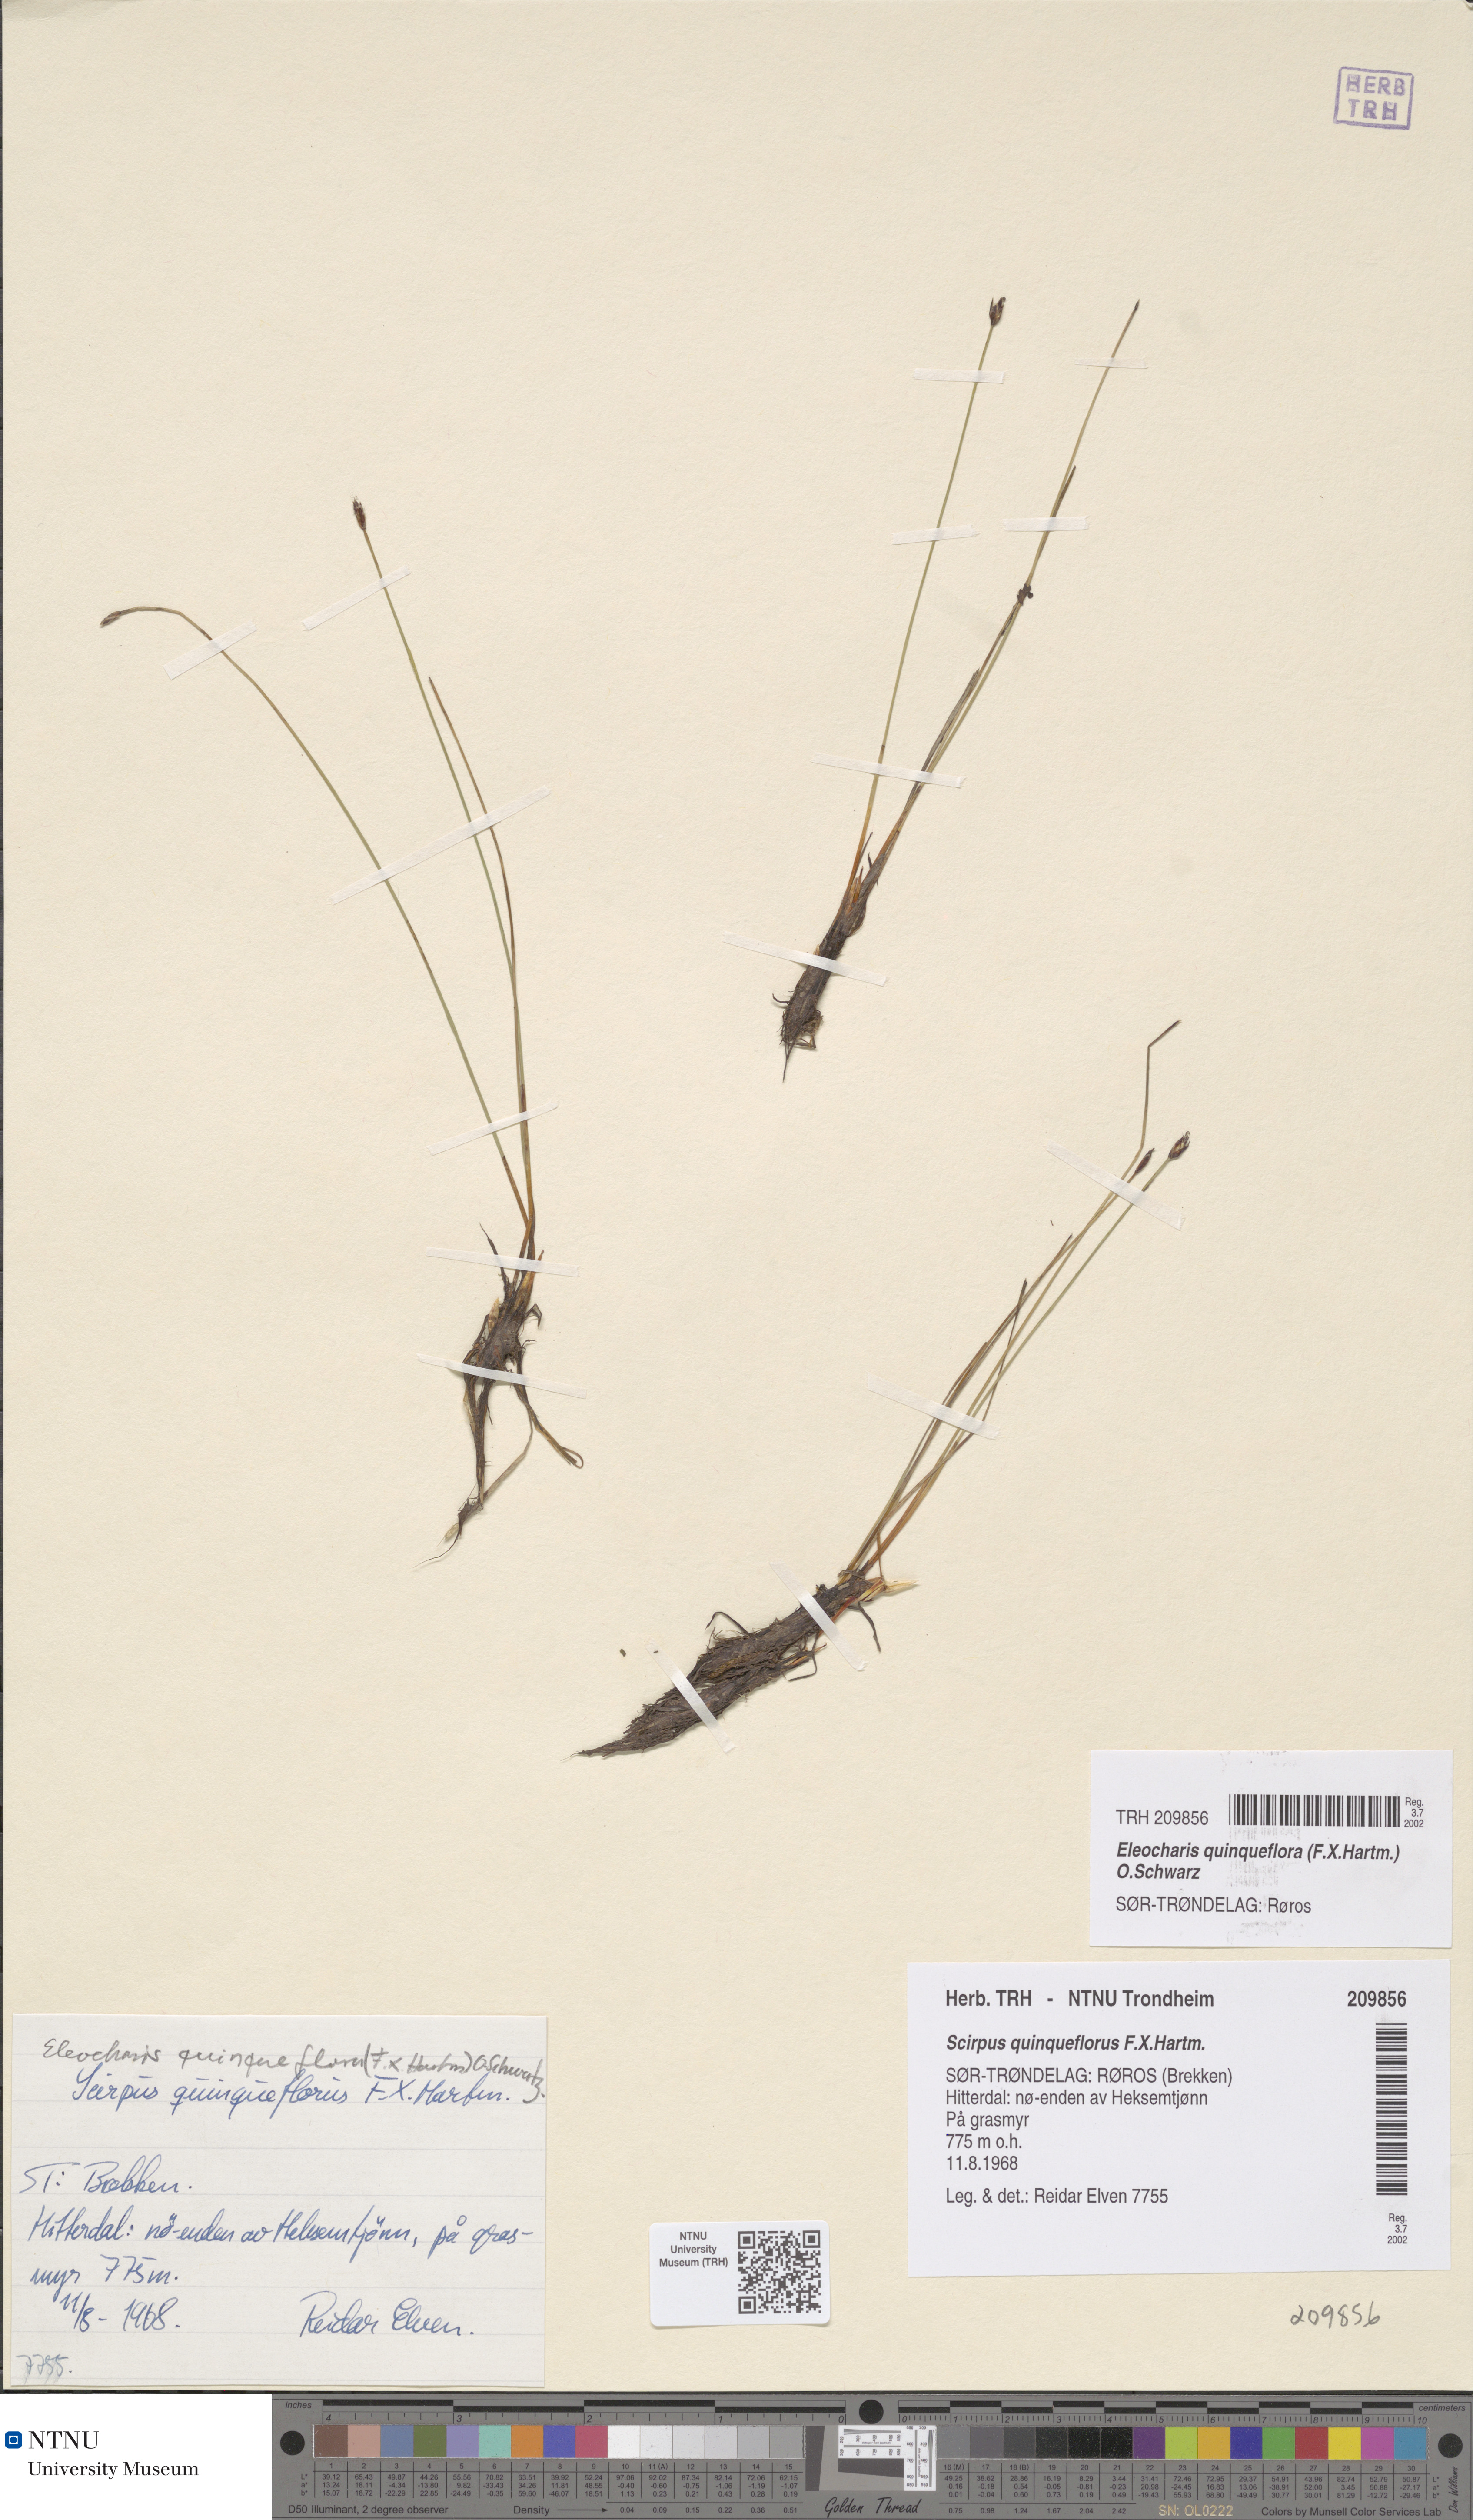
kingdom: Plantae
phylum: Tracheophyta
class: Liliopsida
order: Poales
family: Cyperaceae
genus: Eleocharis
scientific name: Eleocharis quinqueflora
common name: Few-flowered spike-rush
